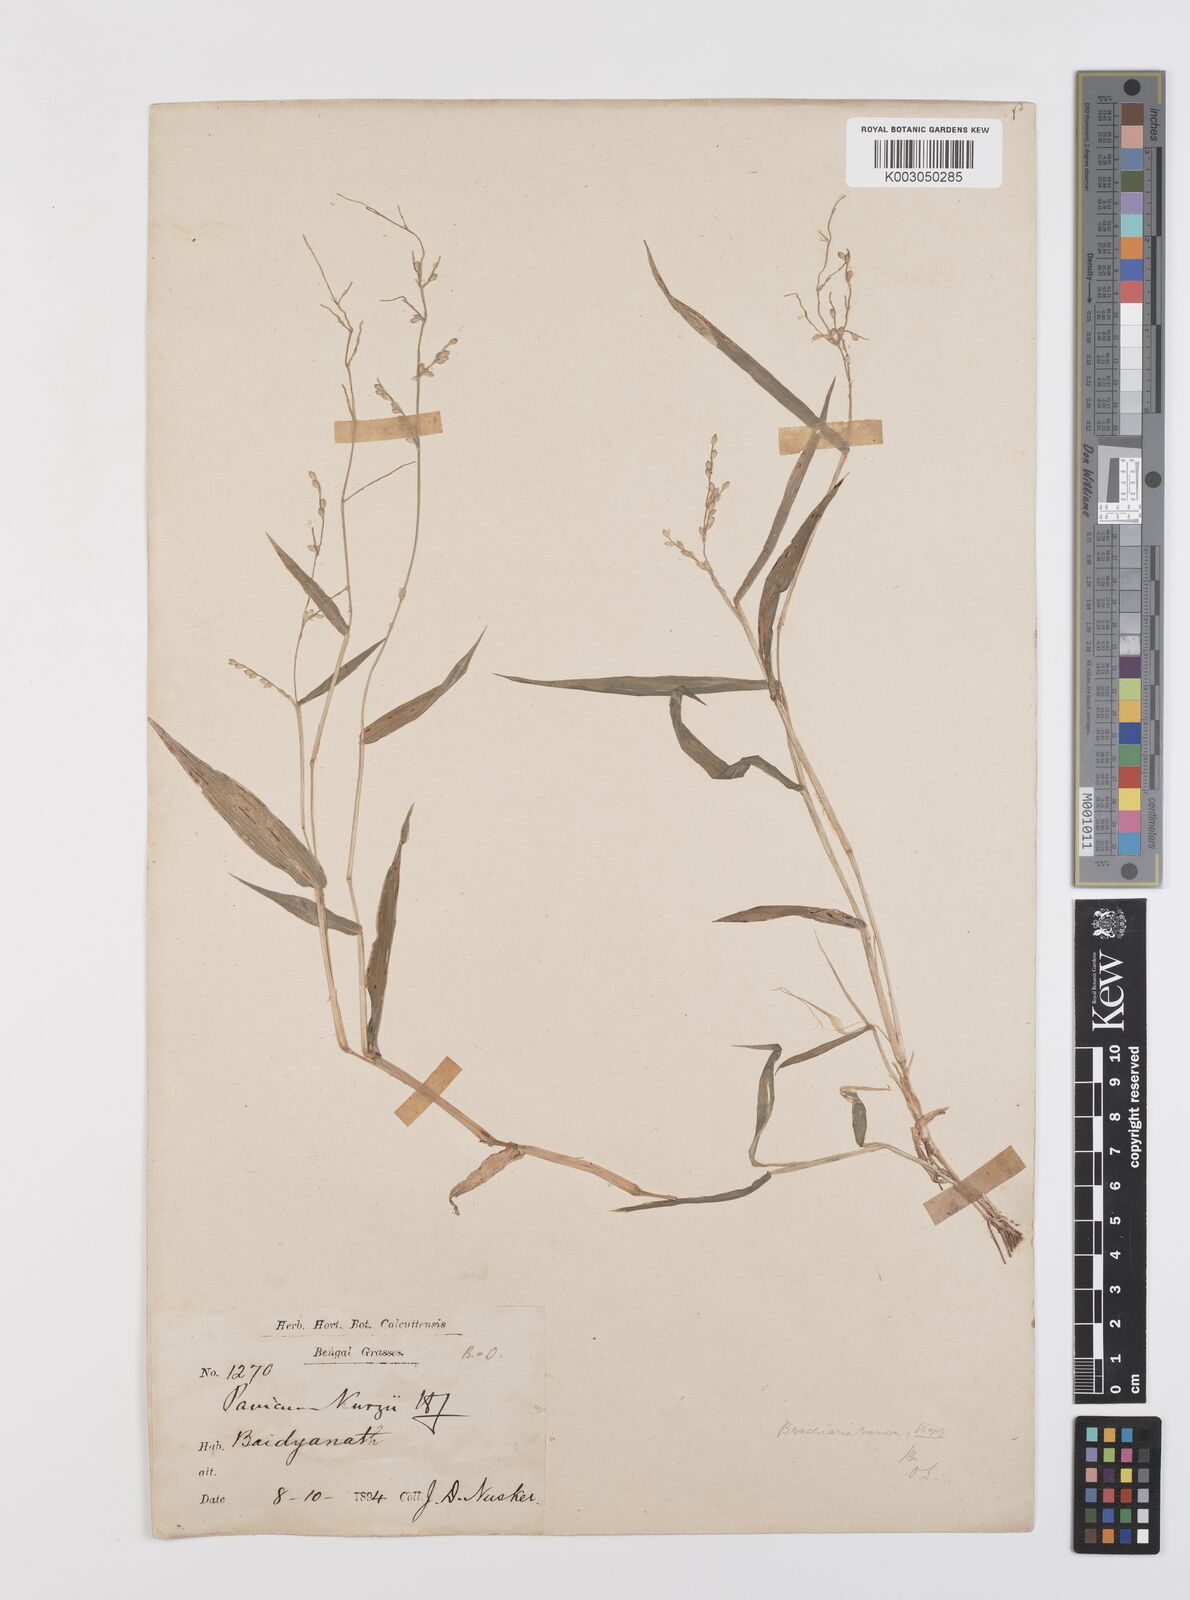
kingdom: Plantae
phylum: Tracheophyta
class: Liliopsida
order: Poales
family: Poaceae
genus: Urochloa
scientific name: Urochloa ramosa
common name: Browntop millet
